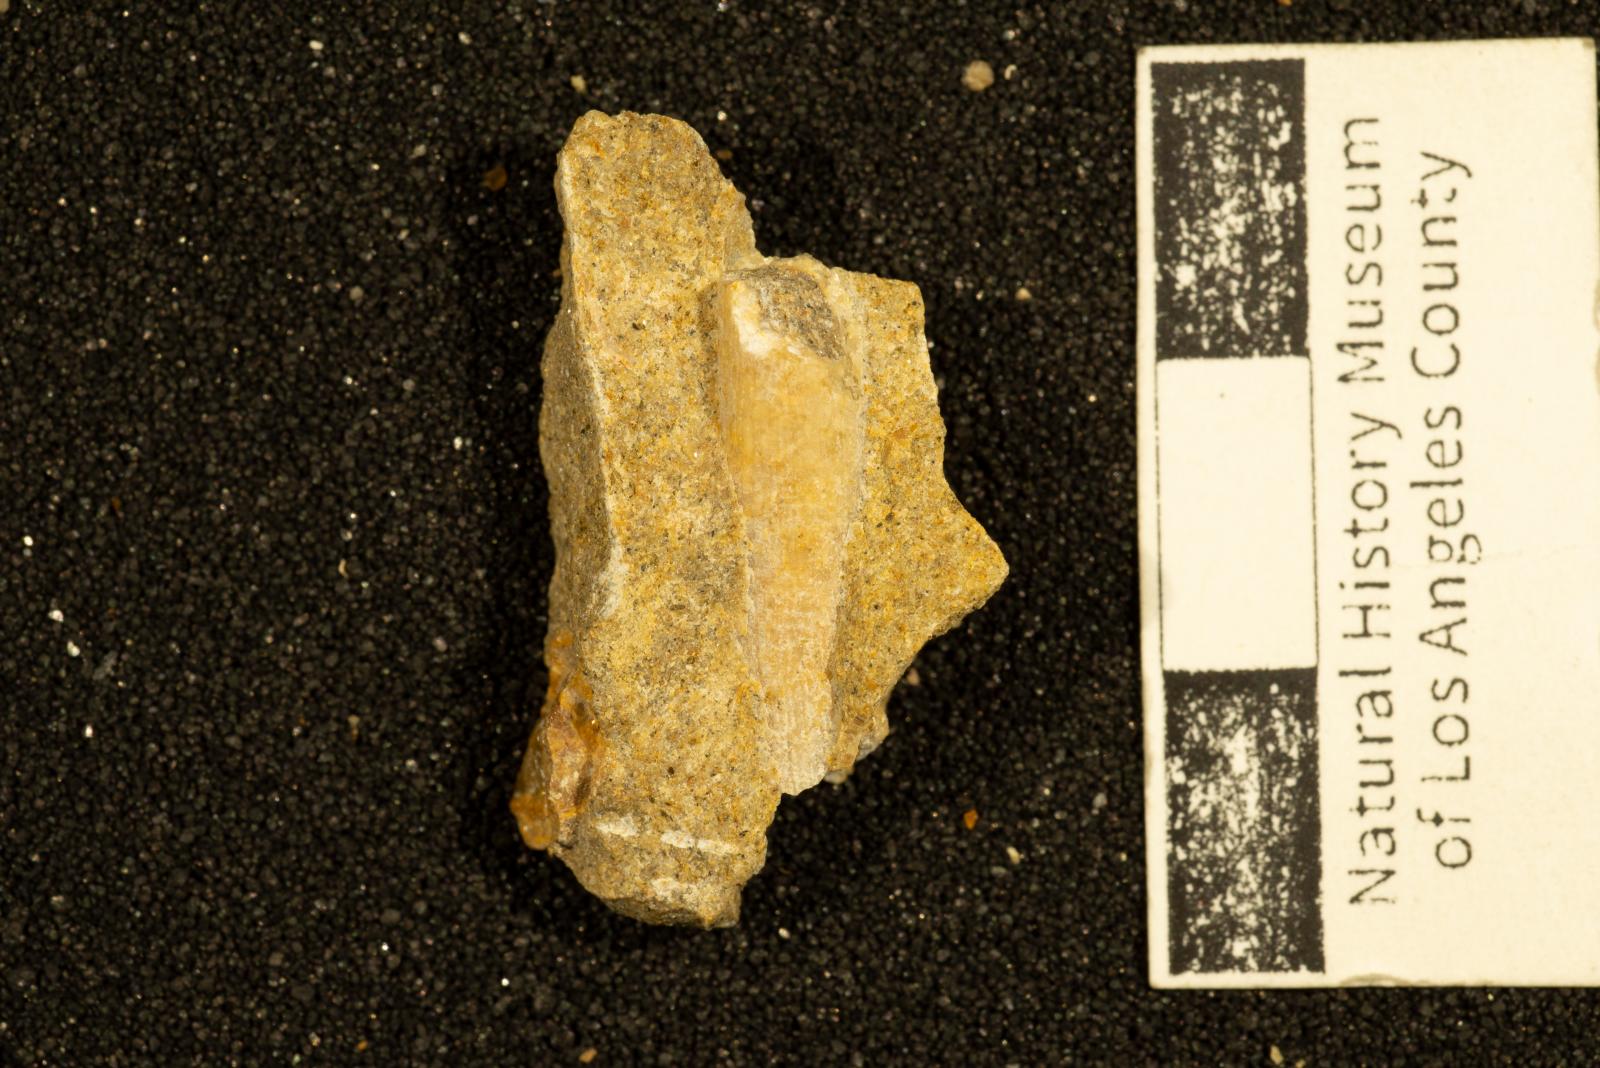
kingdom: Animalia
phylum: Mollusca
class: Scaphopoda
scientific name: Scaphopoda
